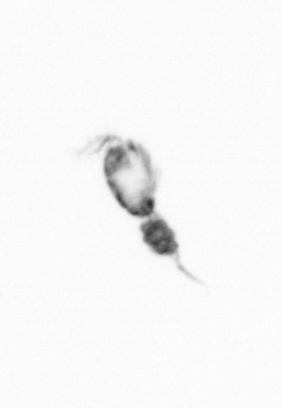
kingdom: Animalia
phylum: Arthropoda
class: Copepoda
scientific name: Copepoda
